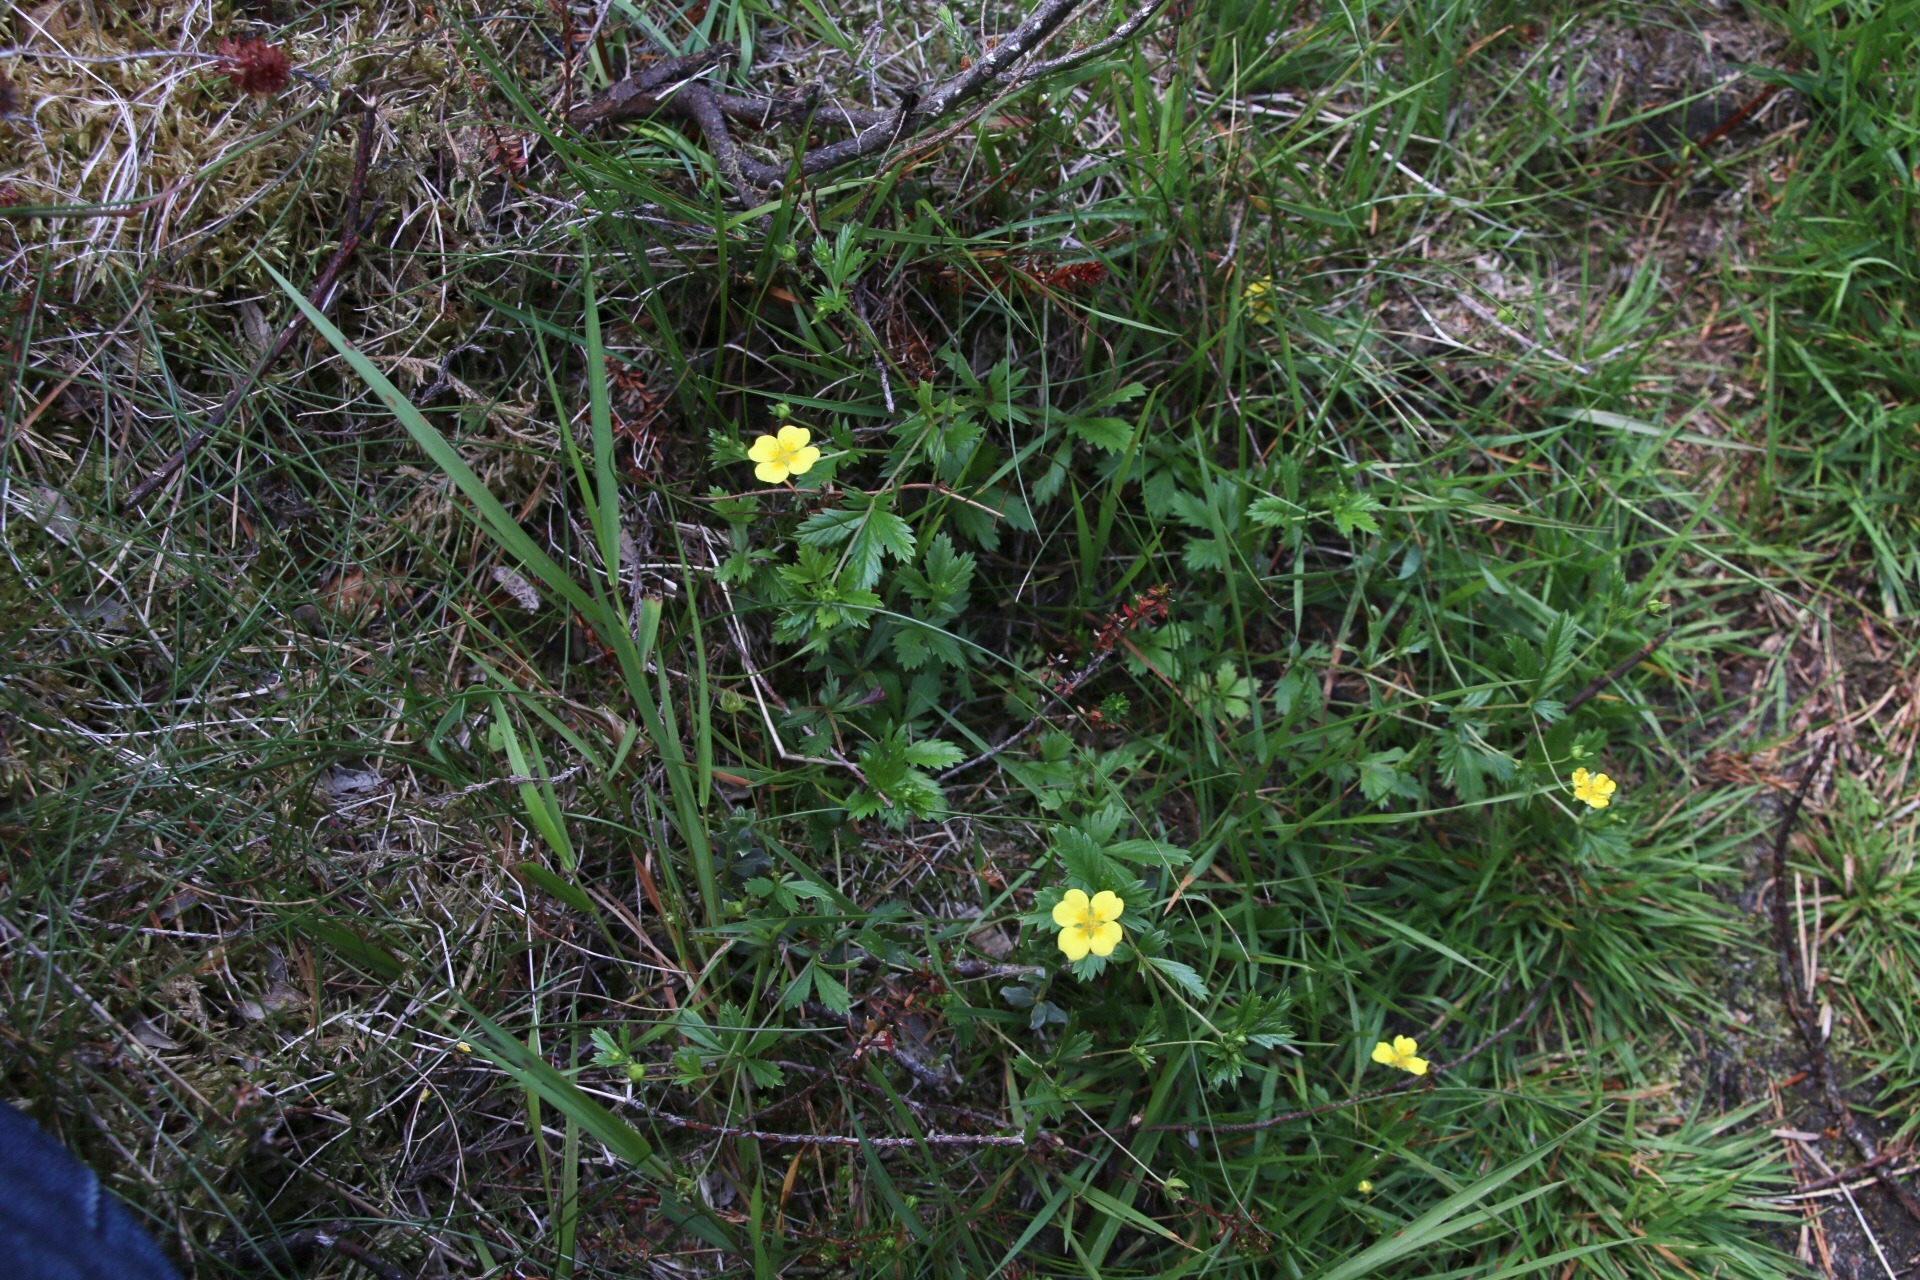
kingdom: Plantae
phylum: Tracheophyta
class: Magnoliopsida
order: Rosales
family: Rosaceae
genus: Potentilla
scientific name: Potentilla erecta
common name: Tormentil
